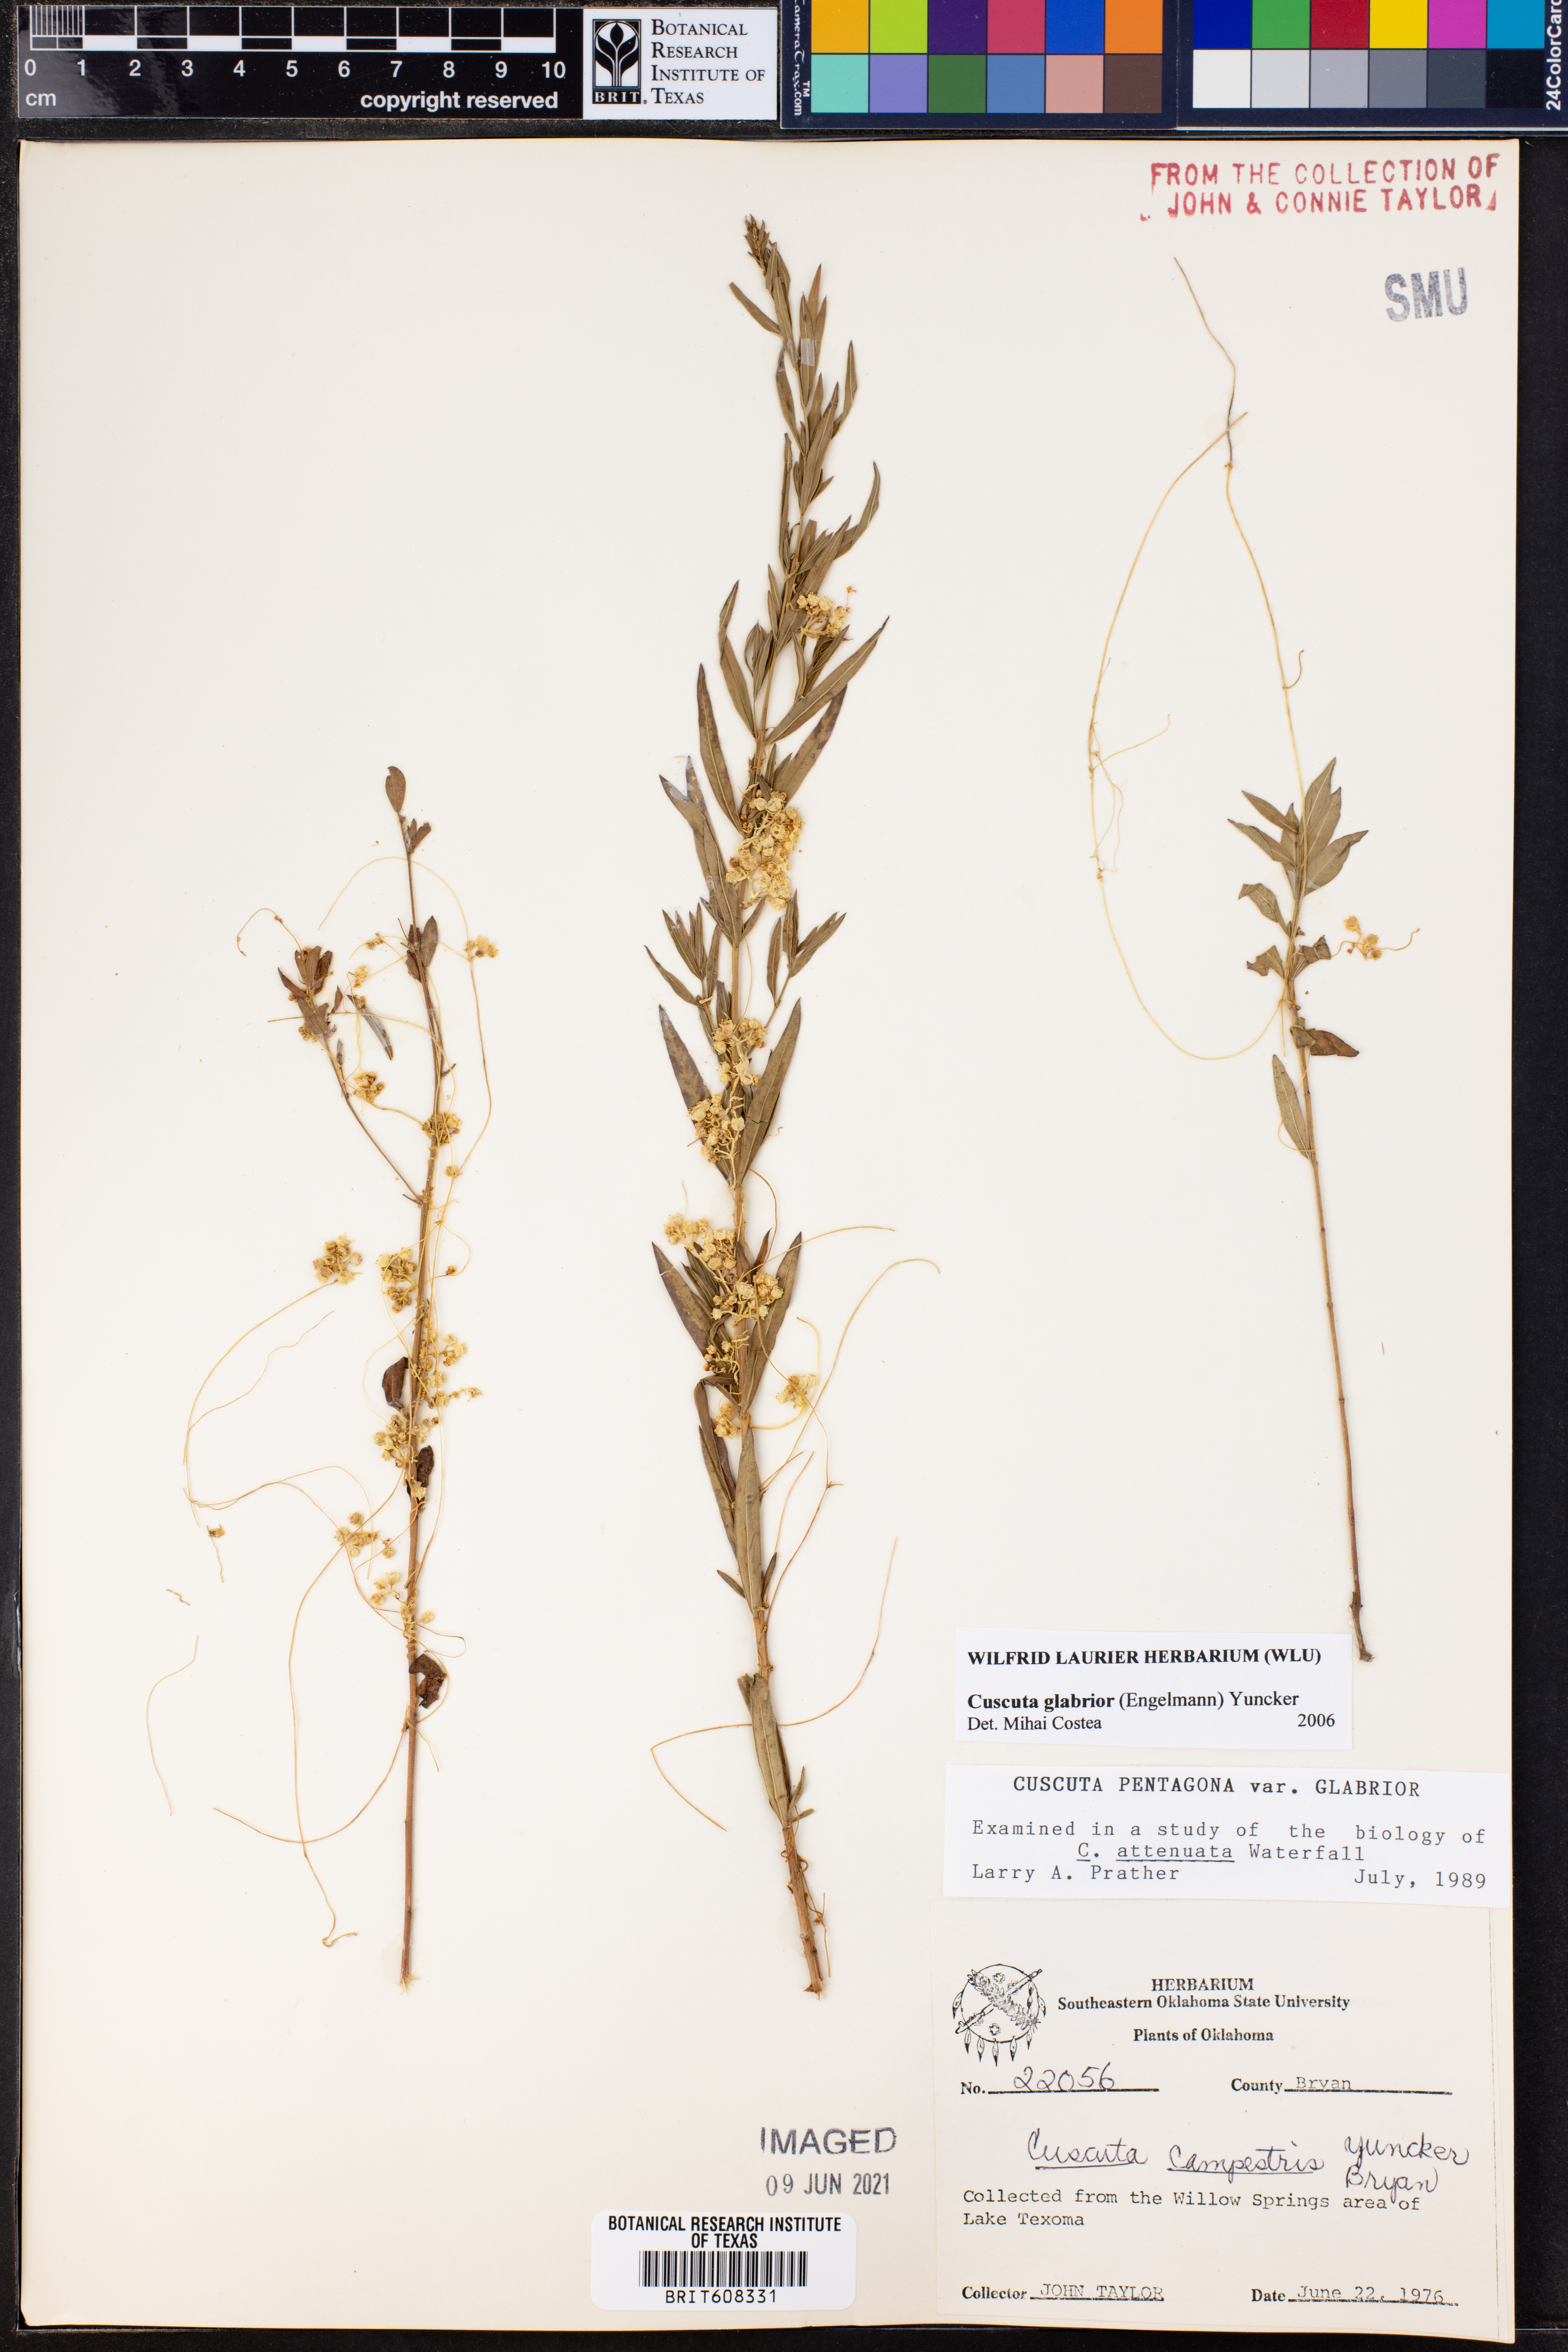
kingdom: Plantae
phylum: Tracheophyta
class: Magnoliopsida
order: Solanales
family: Convolvulaceae
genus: Cuscuta
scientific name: Cuscuta glabrior
